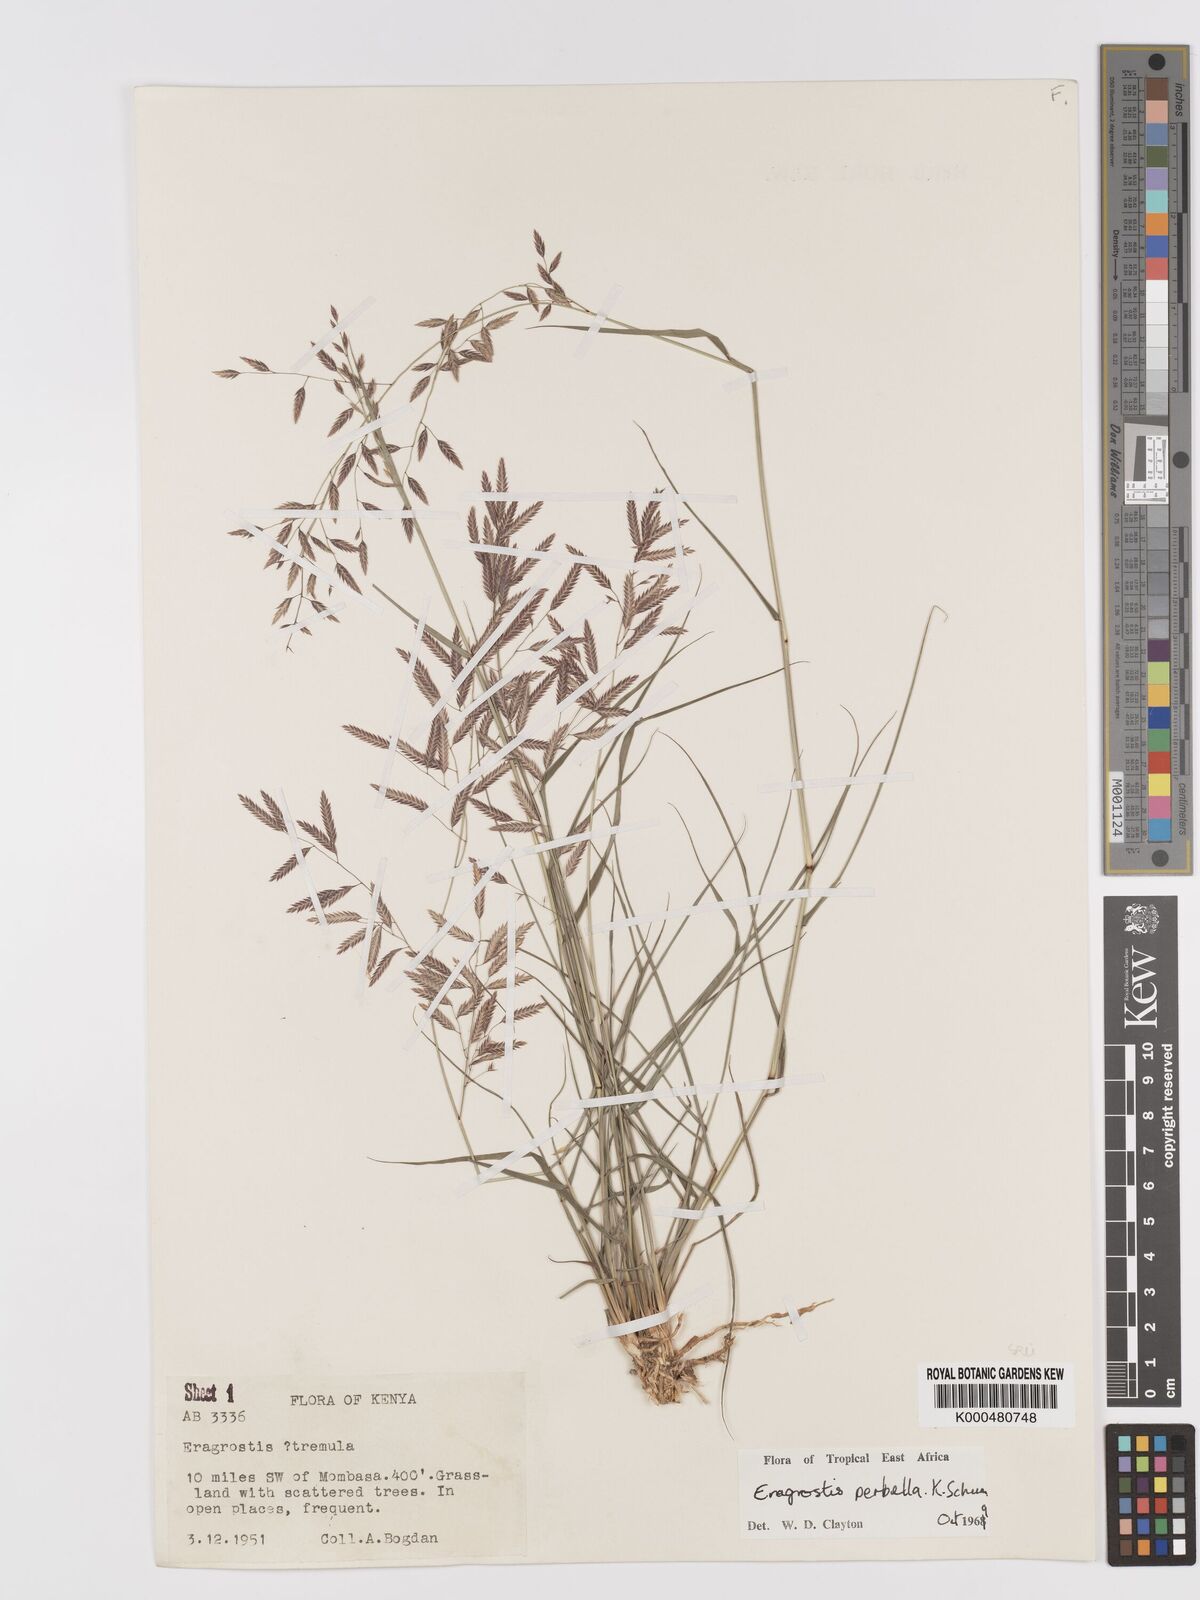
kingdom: Plantae
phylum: Tracheophyta
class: Liliopsida
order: Poales
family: Poaceae
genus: Eragrostis
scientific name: Eragrostis perbella
